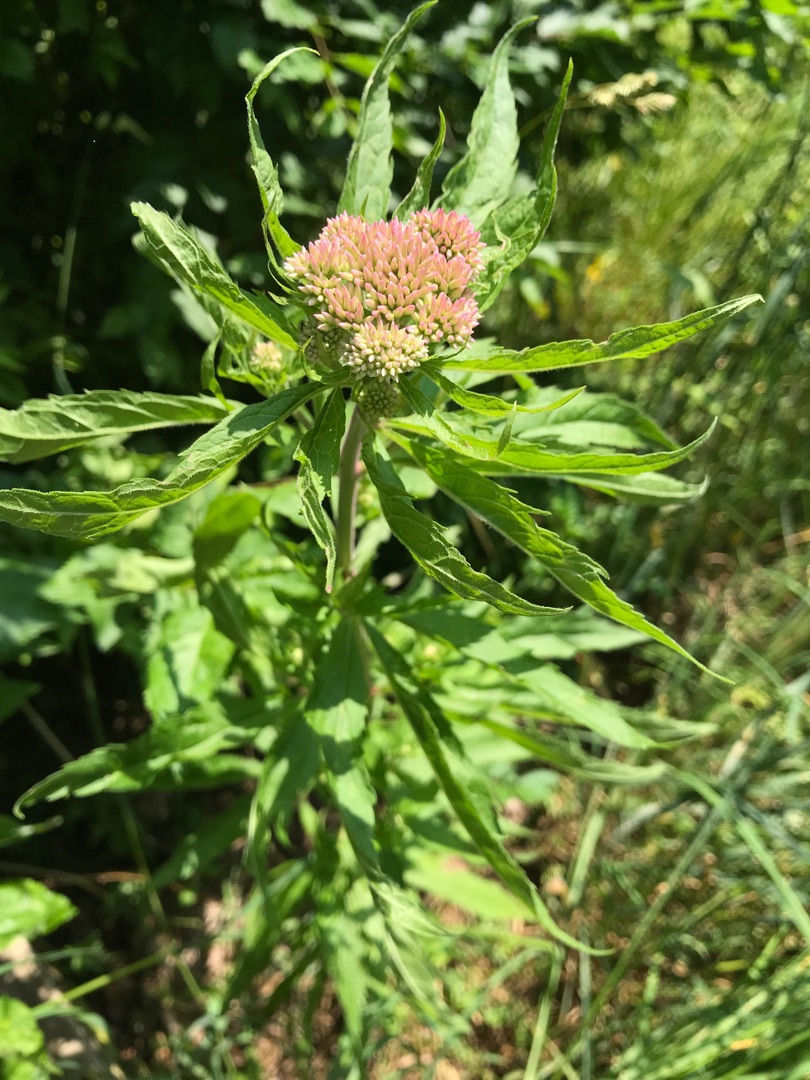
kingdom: Plantae
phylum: Tracheophyta
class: Magnoliopsida
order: Asterales
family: Asteraceae
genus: Eupatorium
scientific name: Eupatorium cannabinum
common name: Hjortetrøst
